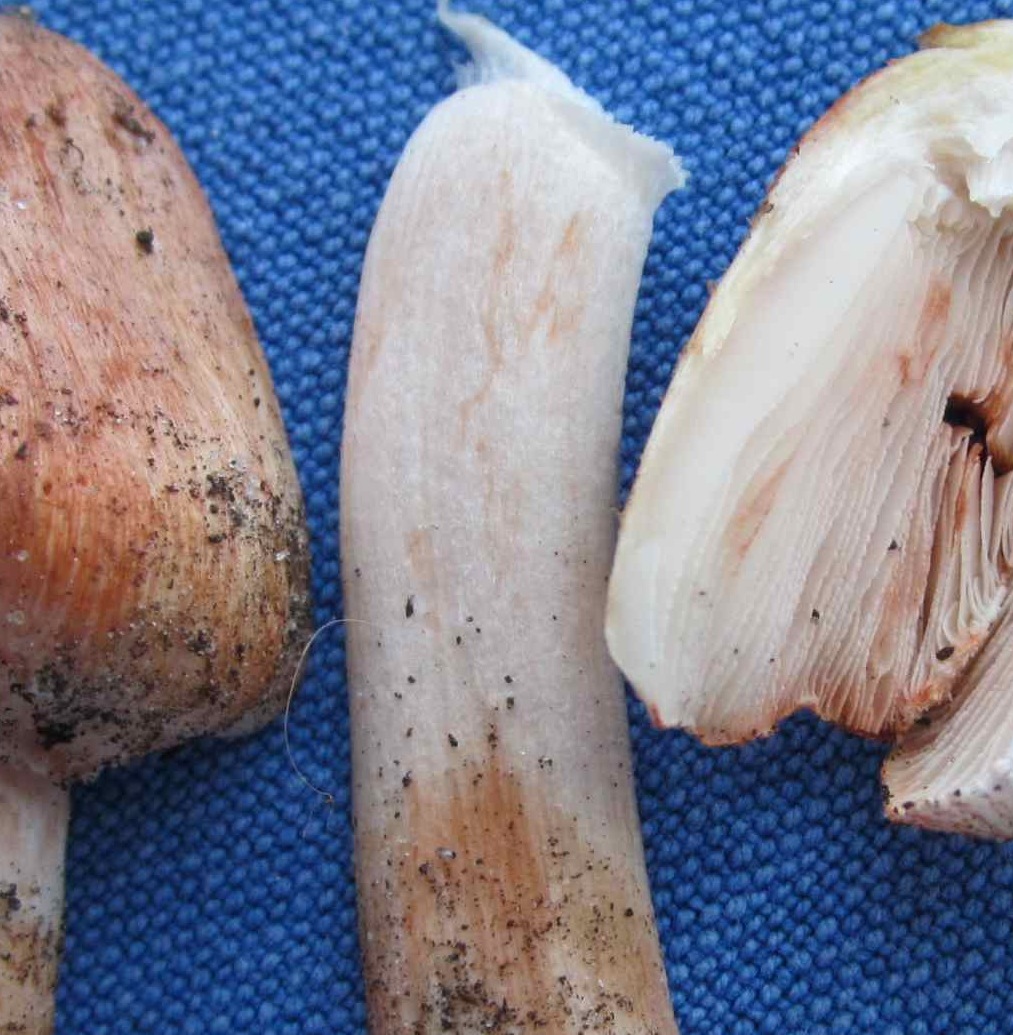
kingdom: Fungi
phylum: Basidiomycota
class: Agaricomycetes
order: Agaricales
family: Inocybaceae
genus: Inosperma
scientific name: Inosperma erubescens
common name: giftig trævlhat
